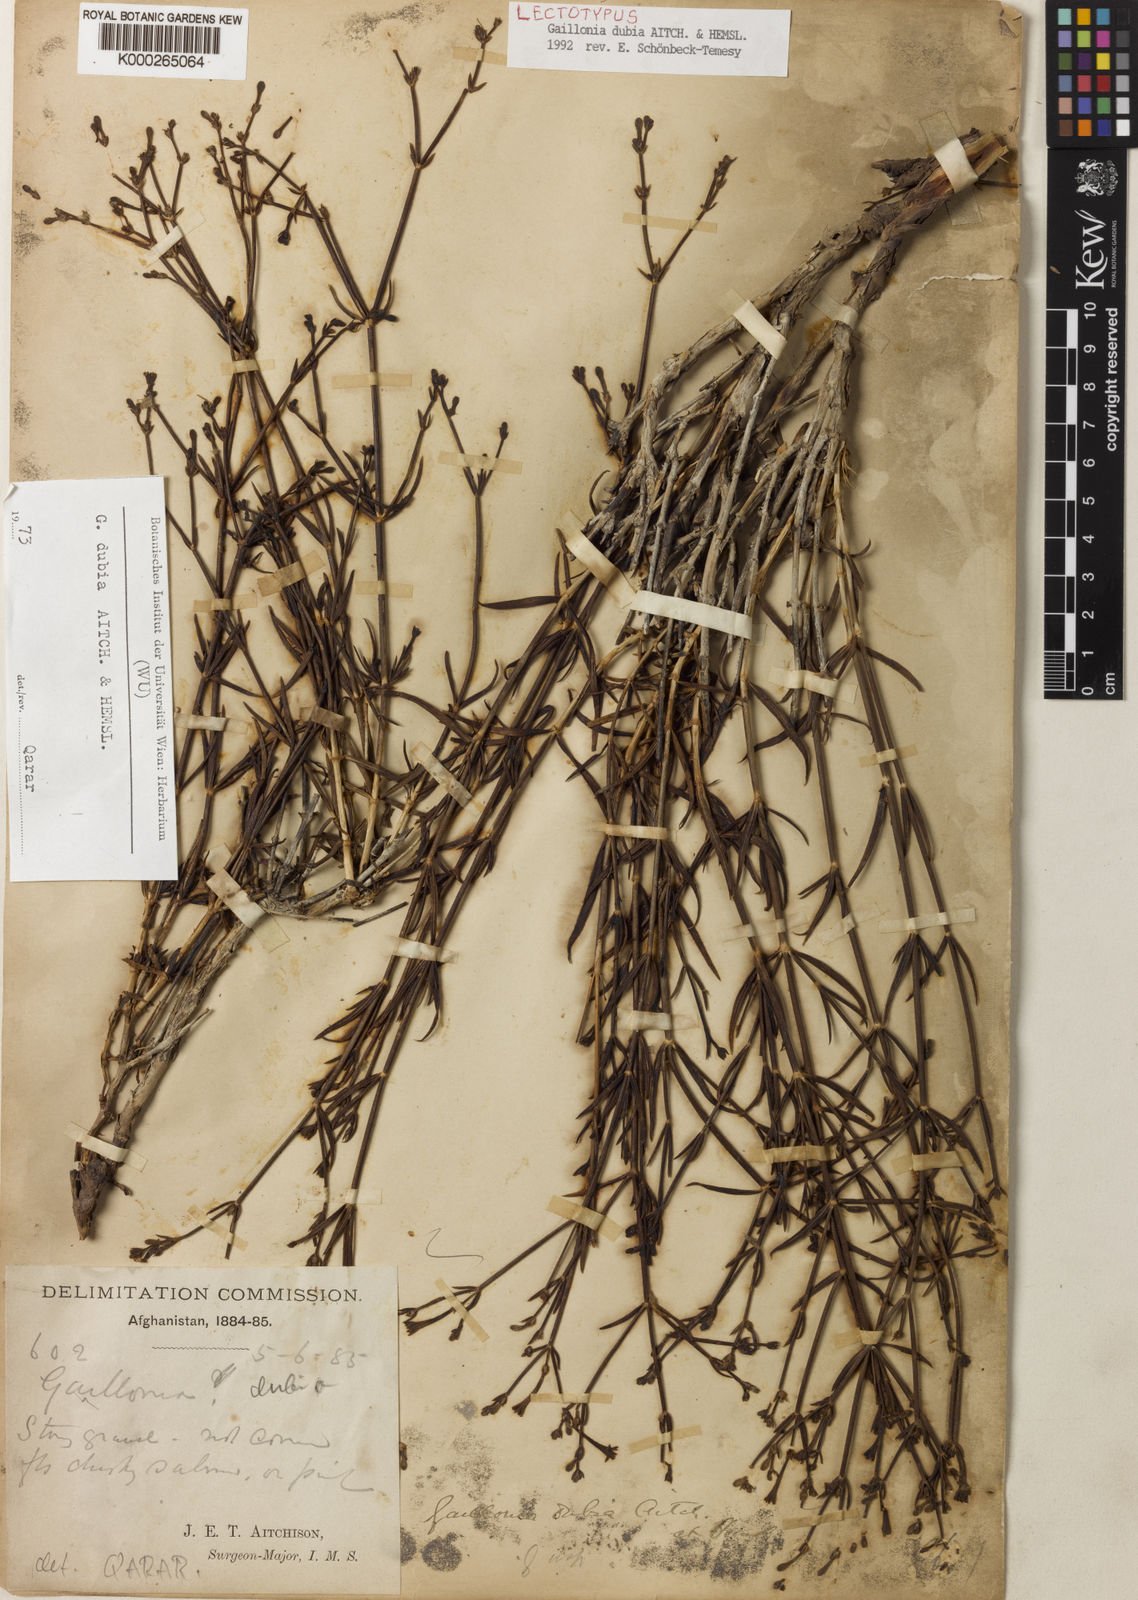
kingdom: Plantae
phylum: Tracheophyta
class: Magnoliopsida
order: Gentianales
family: Rubiaceae
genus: Plocama
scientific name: Plocama dubia
